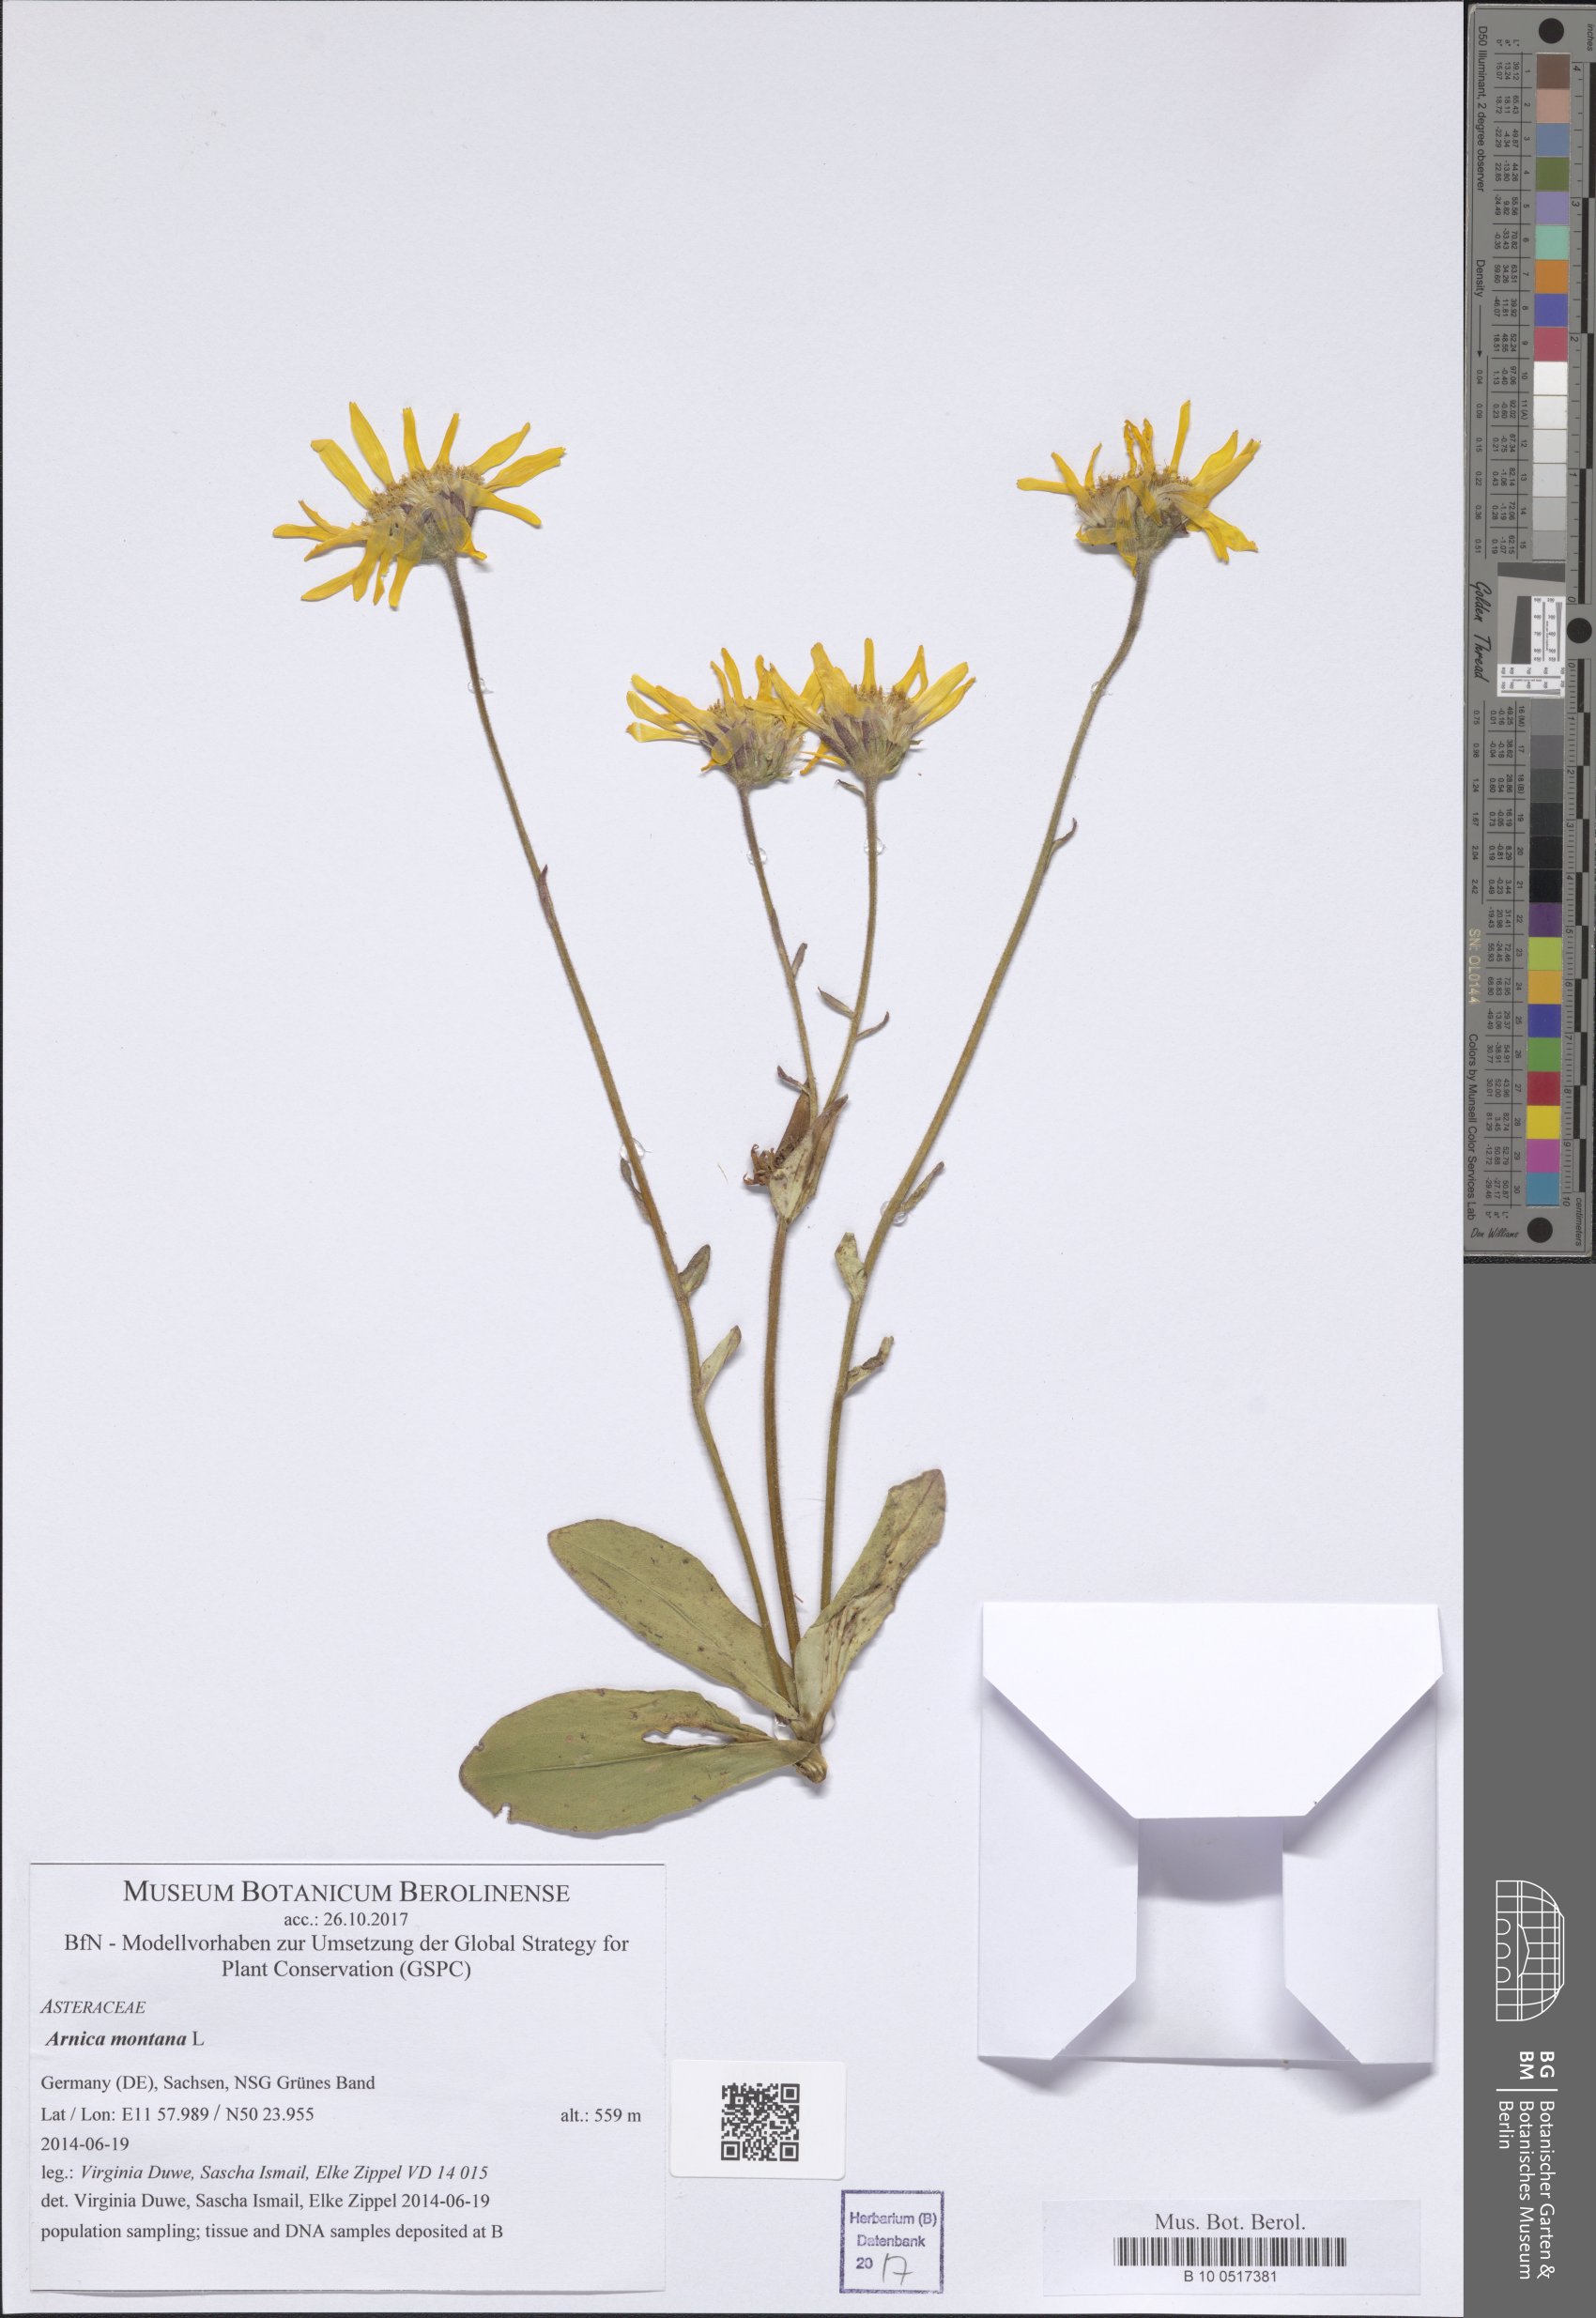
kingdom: Plantae
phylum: Tracheophyta
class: Magnoliopsida
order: Asterales
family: Asteraceae
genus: Arnica
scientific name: Arnica montana
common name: Leopard's bane
